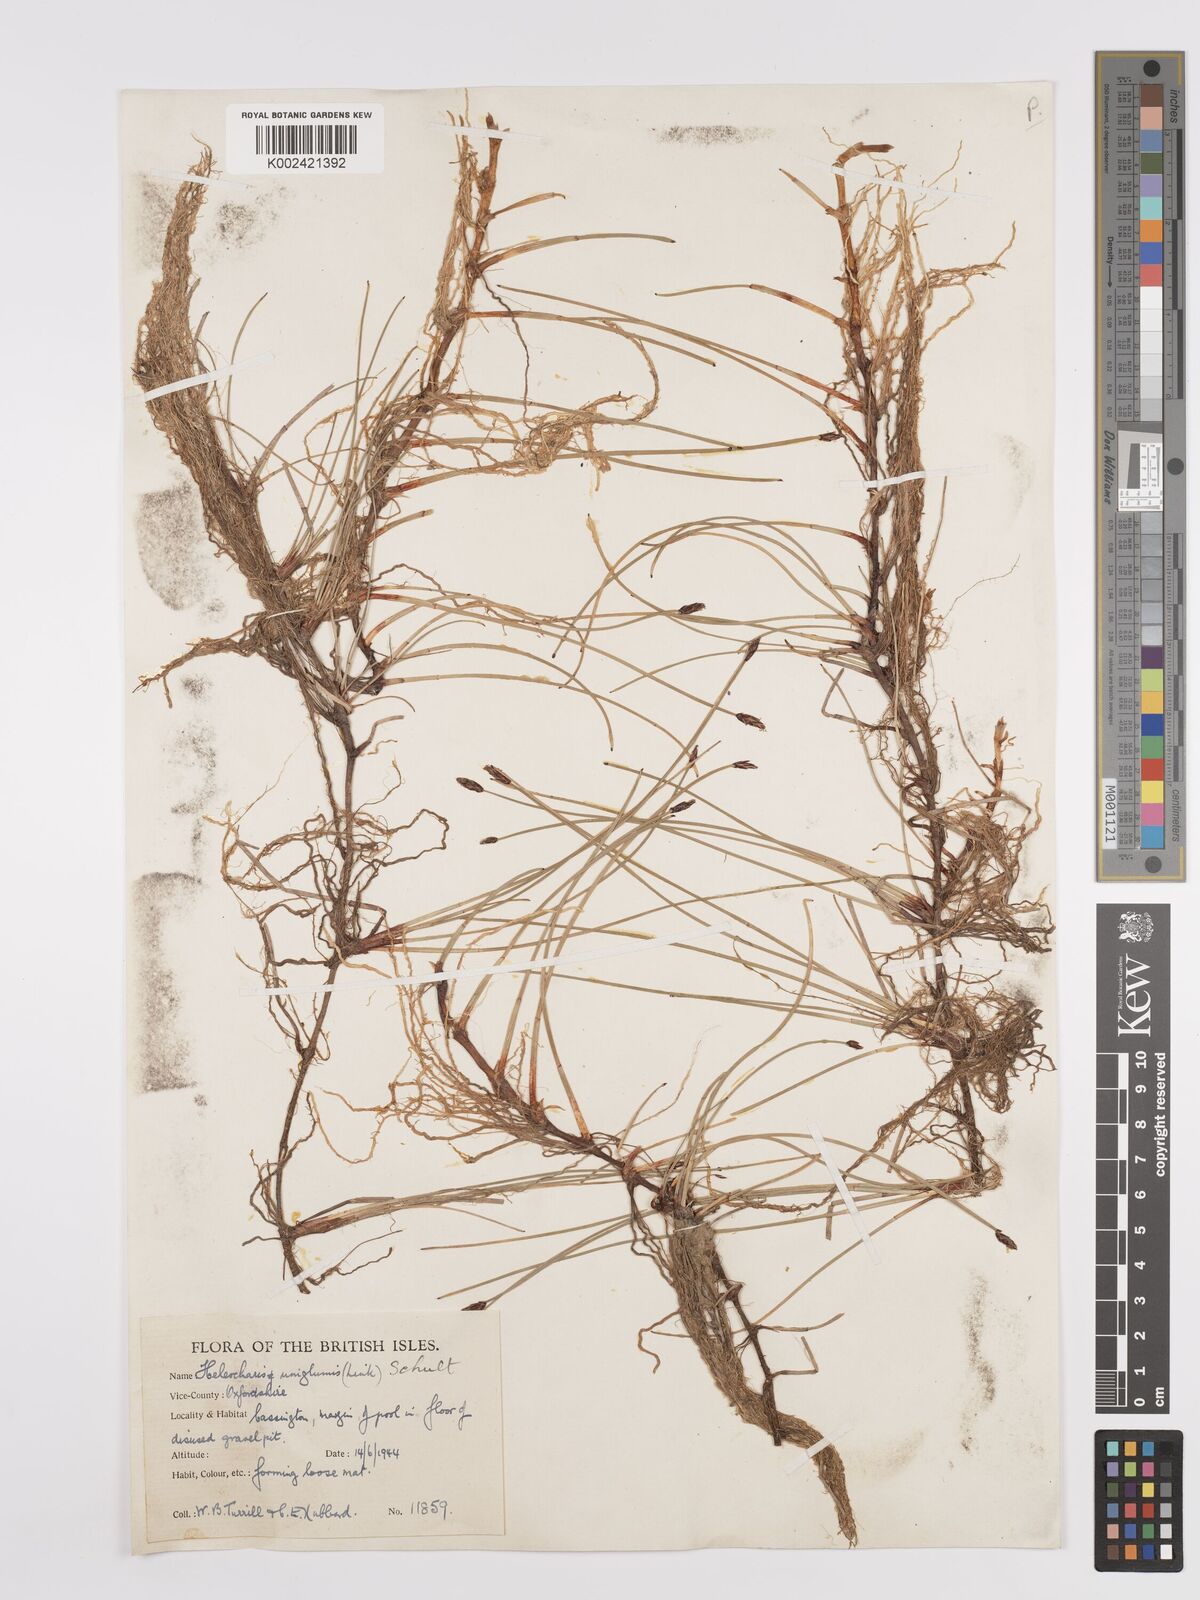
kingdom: Plantae
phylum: Tracheophyta
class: Liliopsida
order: Poales
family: Cyperaceae
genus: Eleocharis
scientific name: Eleocharis uniglumis
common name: Slender spike-rush
